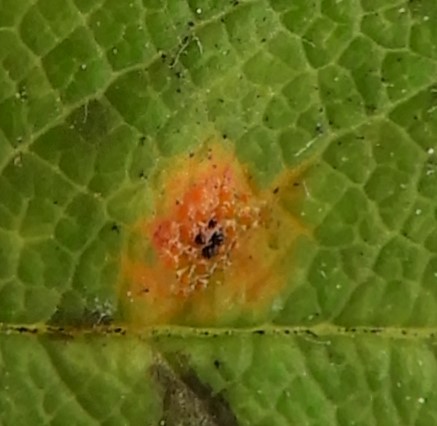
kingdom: Fungi
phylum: Basidiomycota
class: Pucciniomycetes
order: Pucciniales
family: Gymnosporangiaceae
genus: Gymnosporangium
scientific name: Gymnosporangium cornutum
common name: rønnehorn-bævrerust
